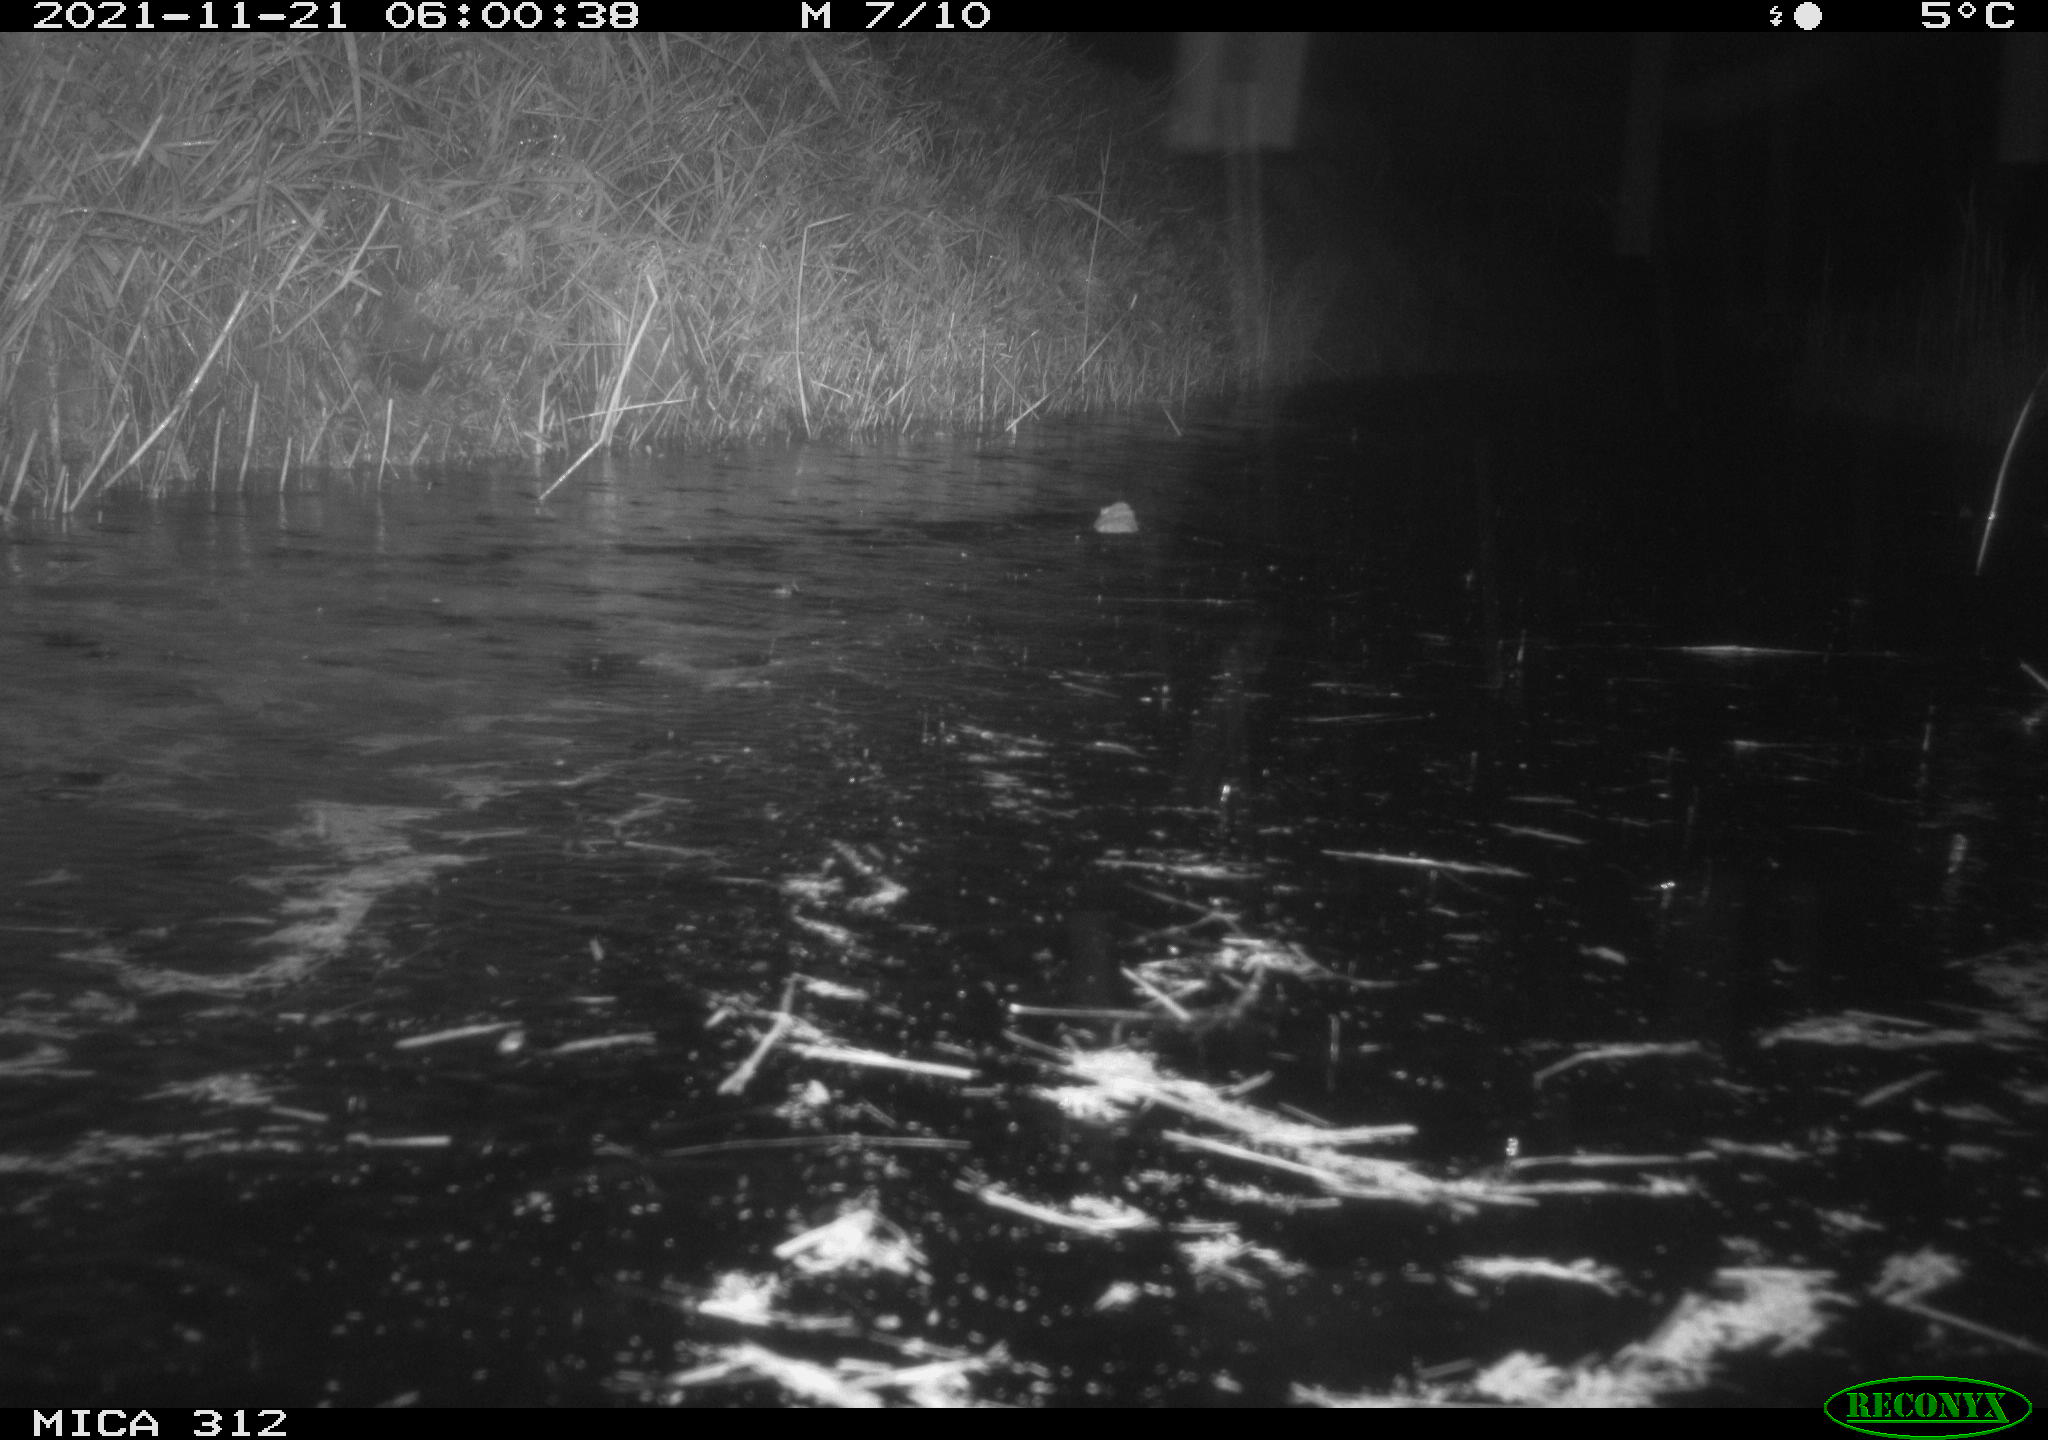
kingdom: Animalia
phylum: Chordata
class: Mammalia
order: Rodentia
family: Muridae
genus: Rattus
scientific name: Rattus norvegicus
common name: Brown rat
